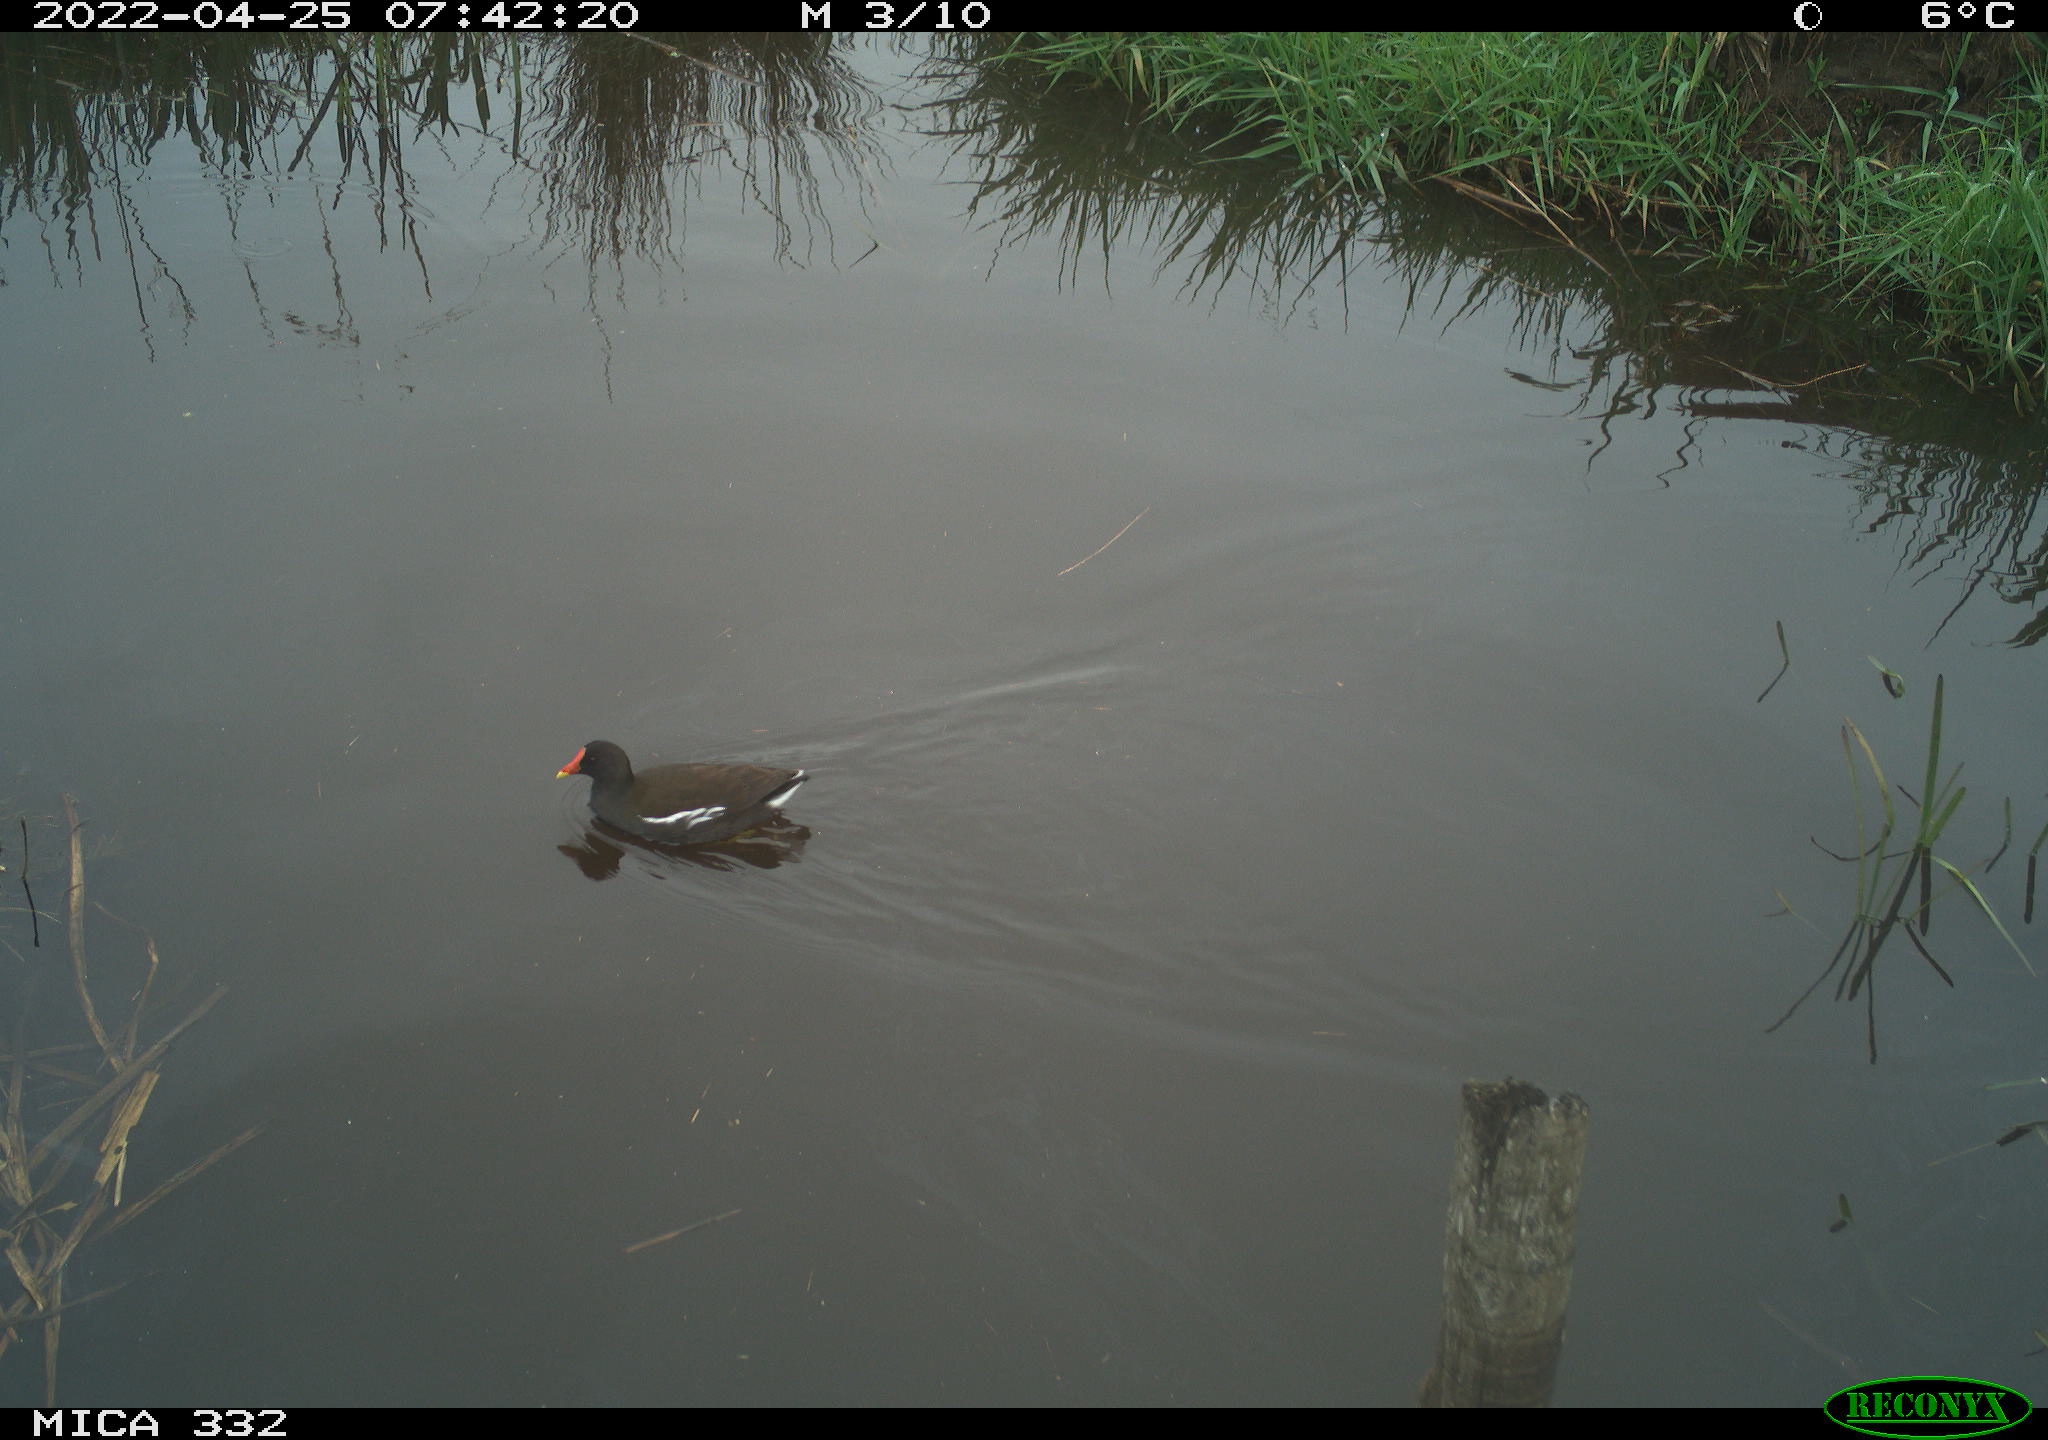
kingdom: Animalia
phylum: Chordata
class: Aves
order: Gruiformes
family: Rallidae
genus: Gallinula
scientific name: Gallinula chloropus
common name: Common moorhen
